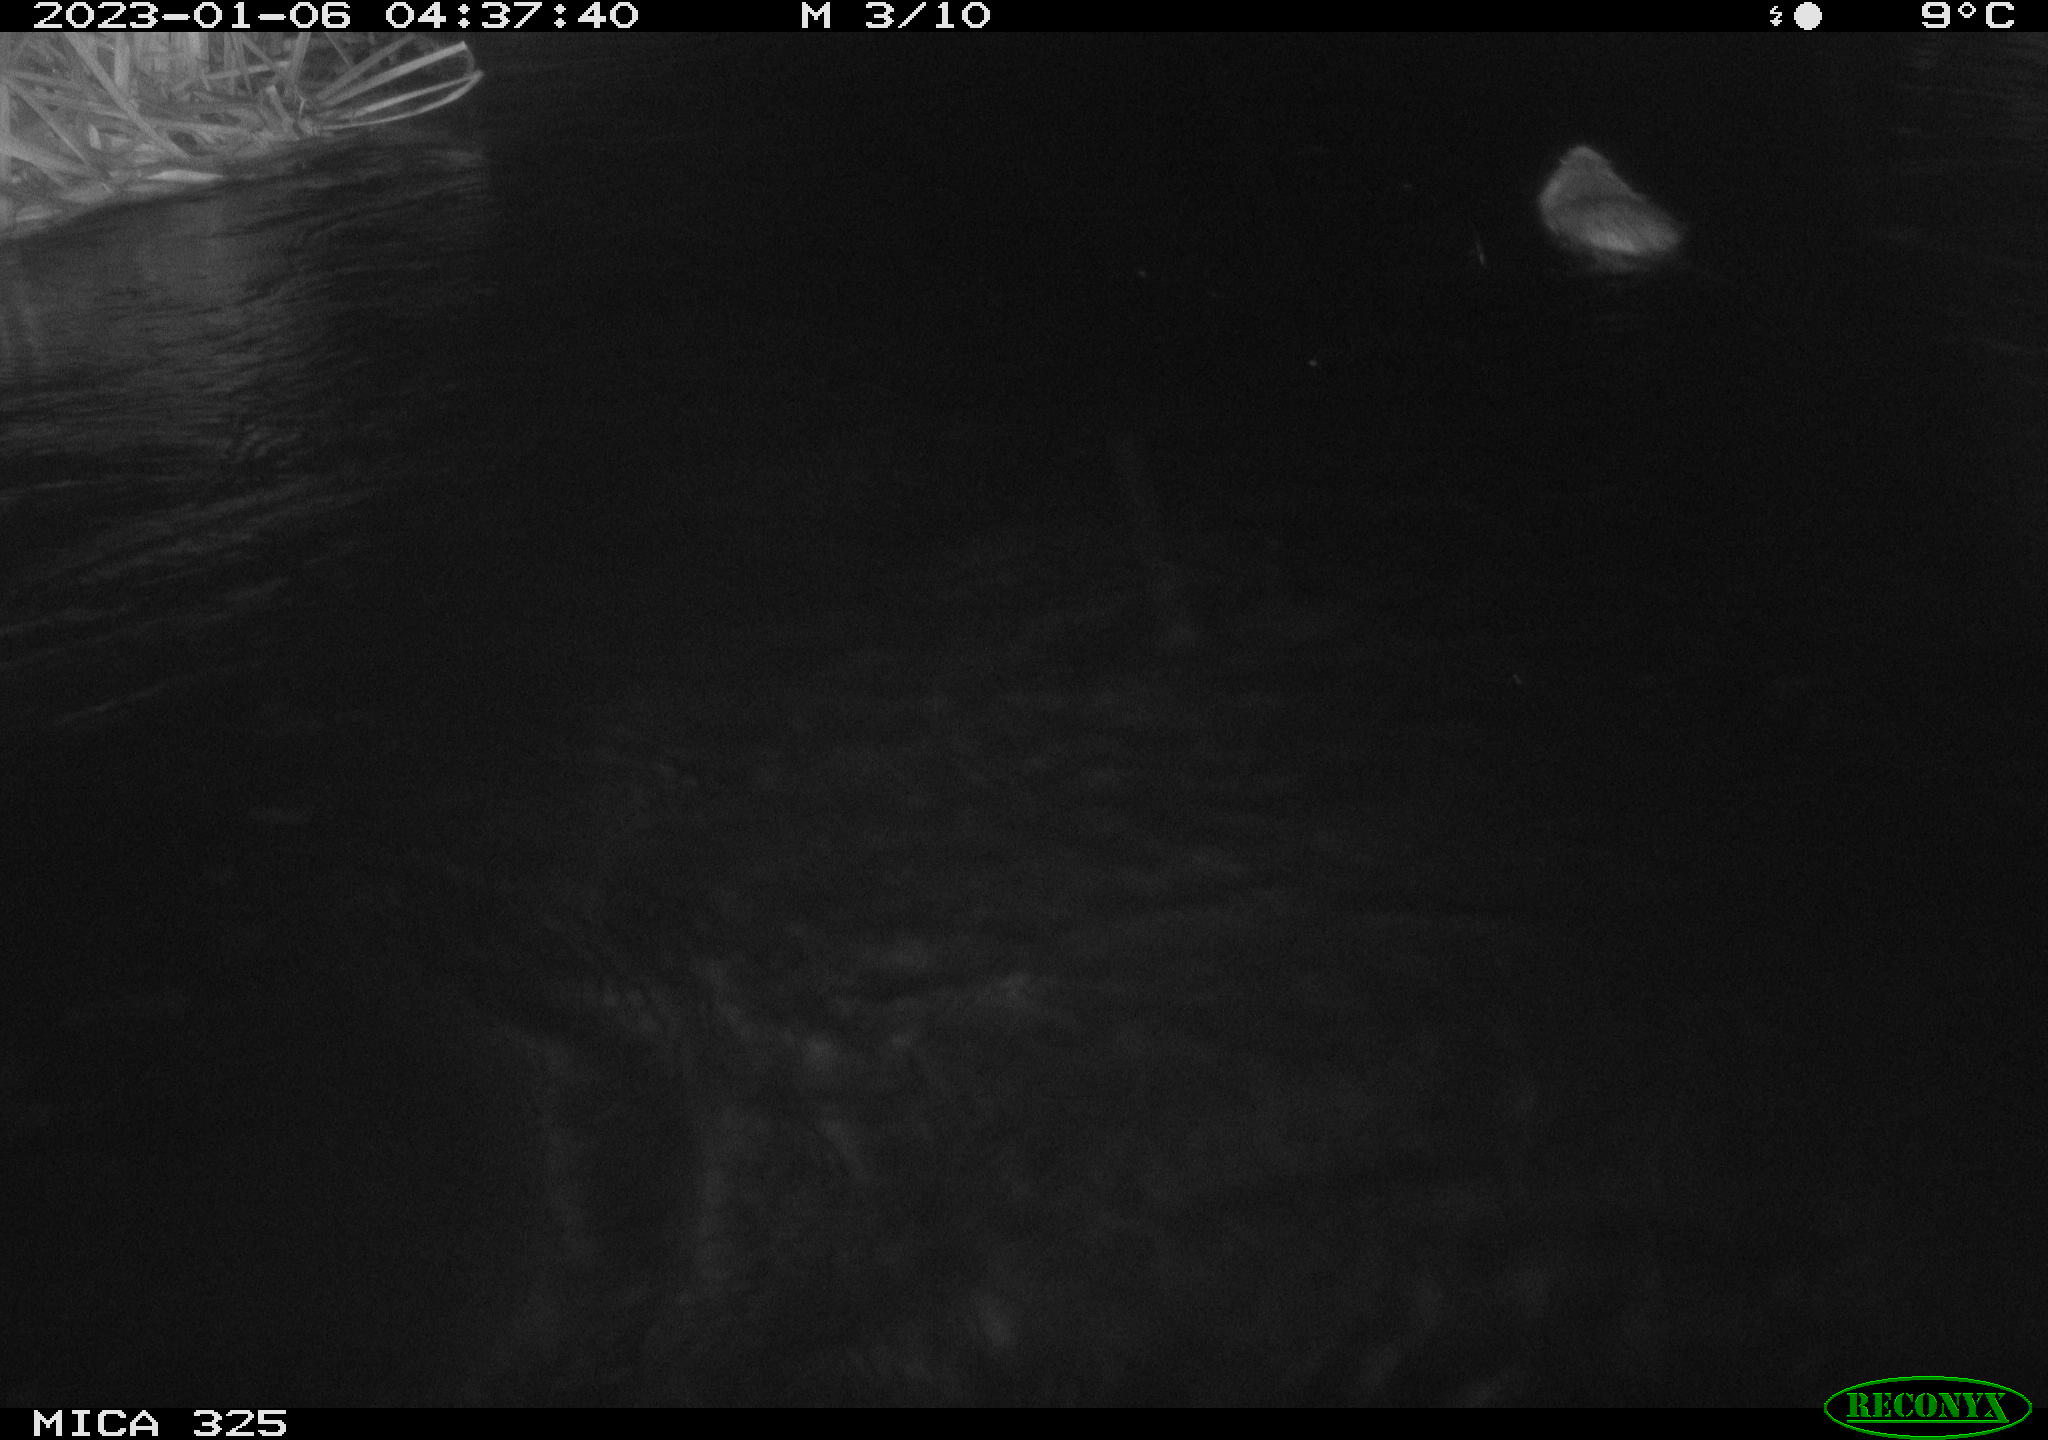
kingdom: Animalia
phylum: Chordata
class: Mammalia
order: Rodentia
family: Myocastoridae
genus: Myocastor
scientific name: Myocastor coypus
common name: Coypu
